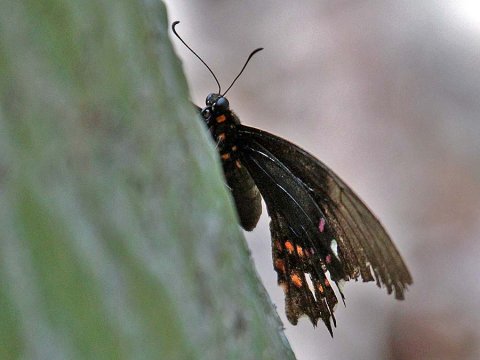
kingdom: Animalia
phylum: Arthropoda
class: Insecta
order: Lepidoptera
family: Papilionidae
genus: Papilio
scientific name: Papilio rogeri
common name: Pink-spotted Swallowtail
